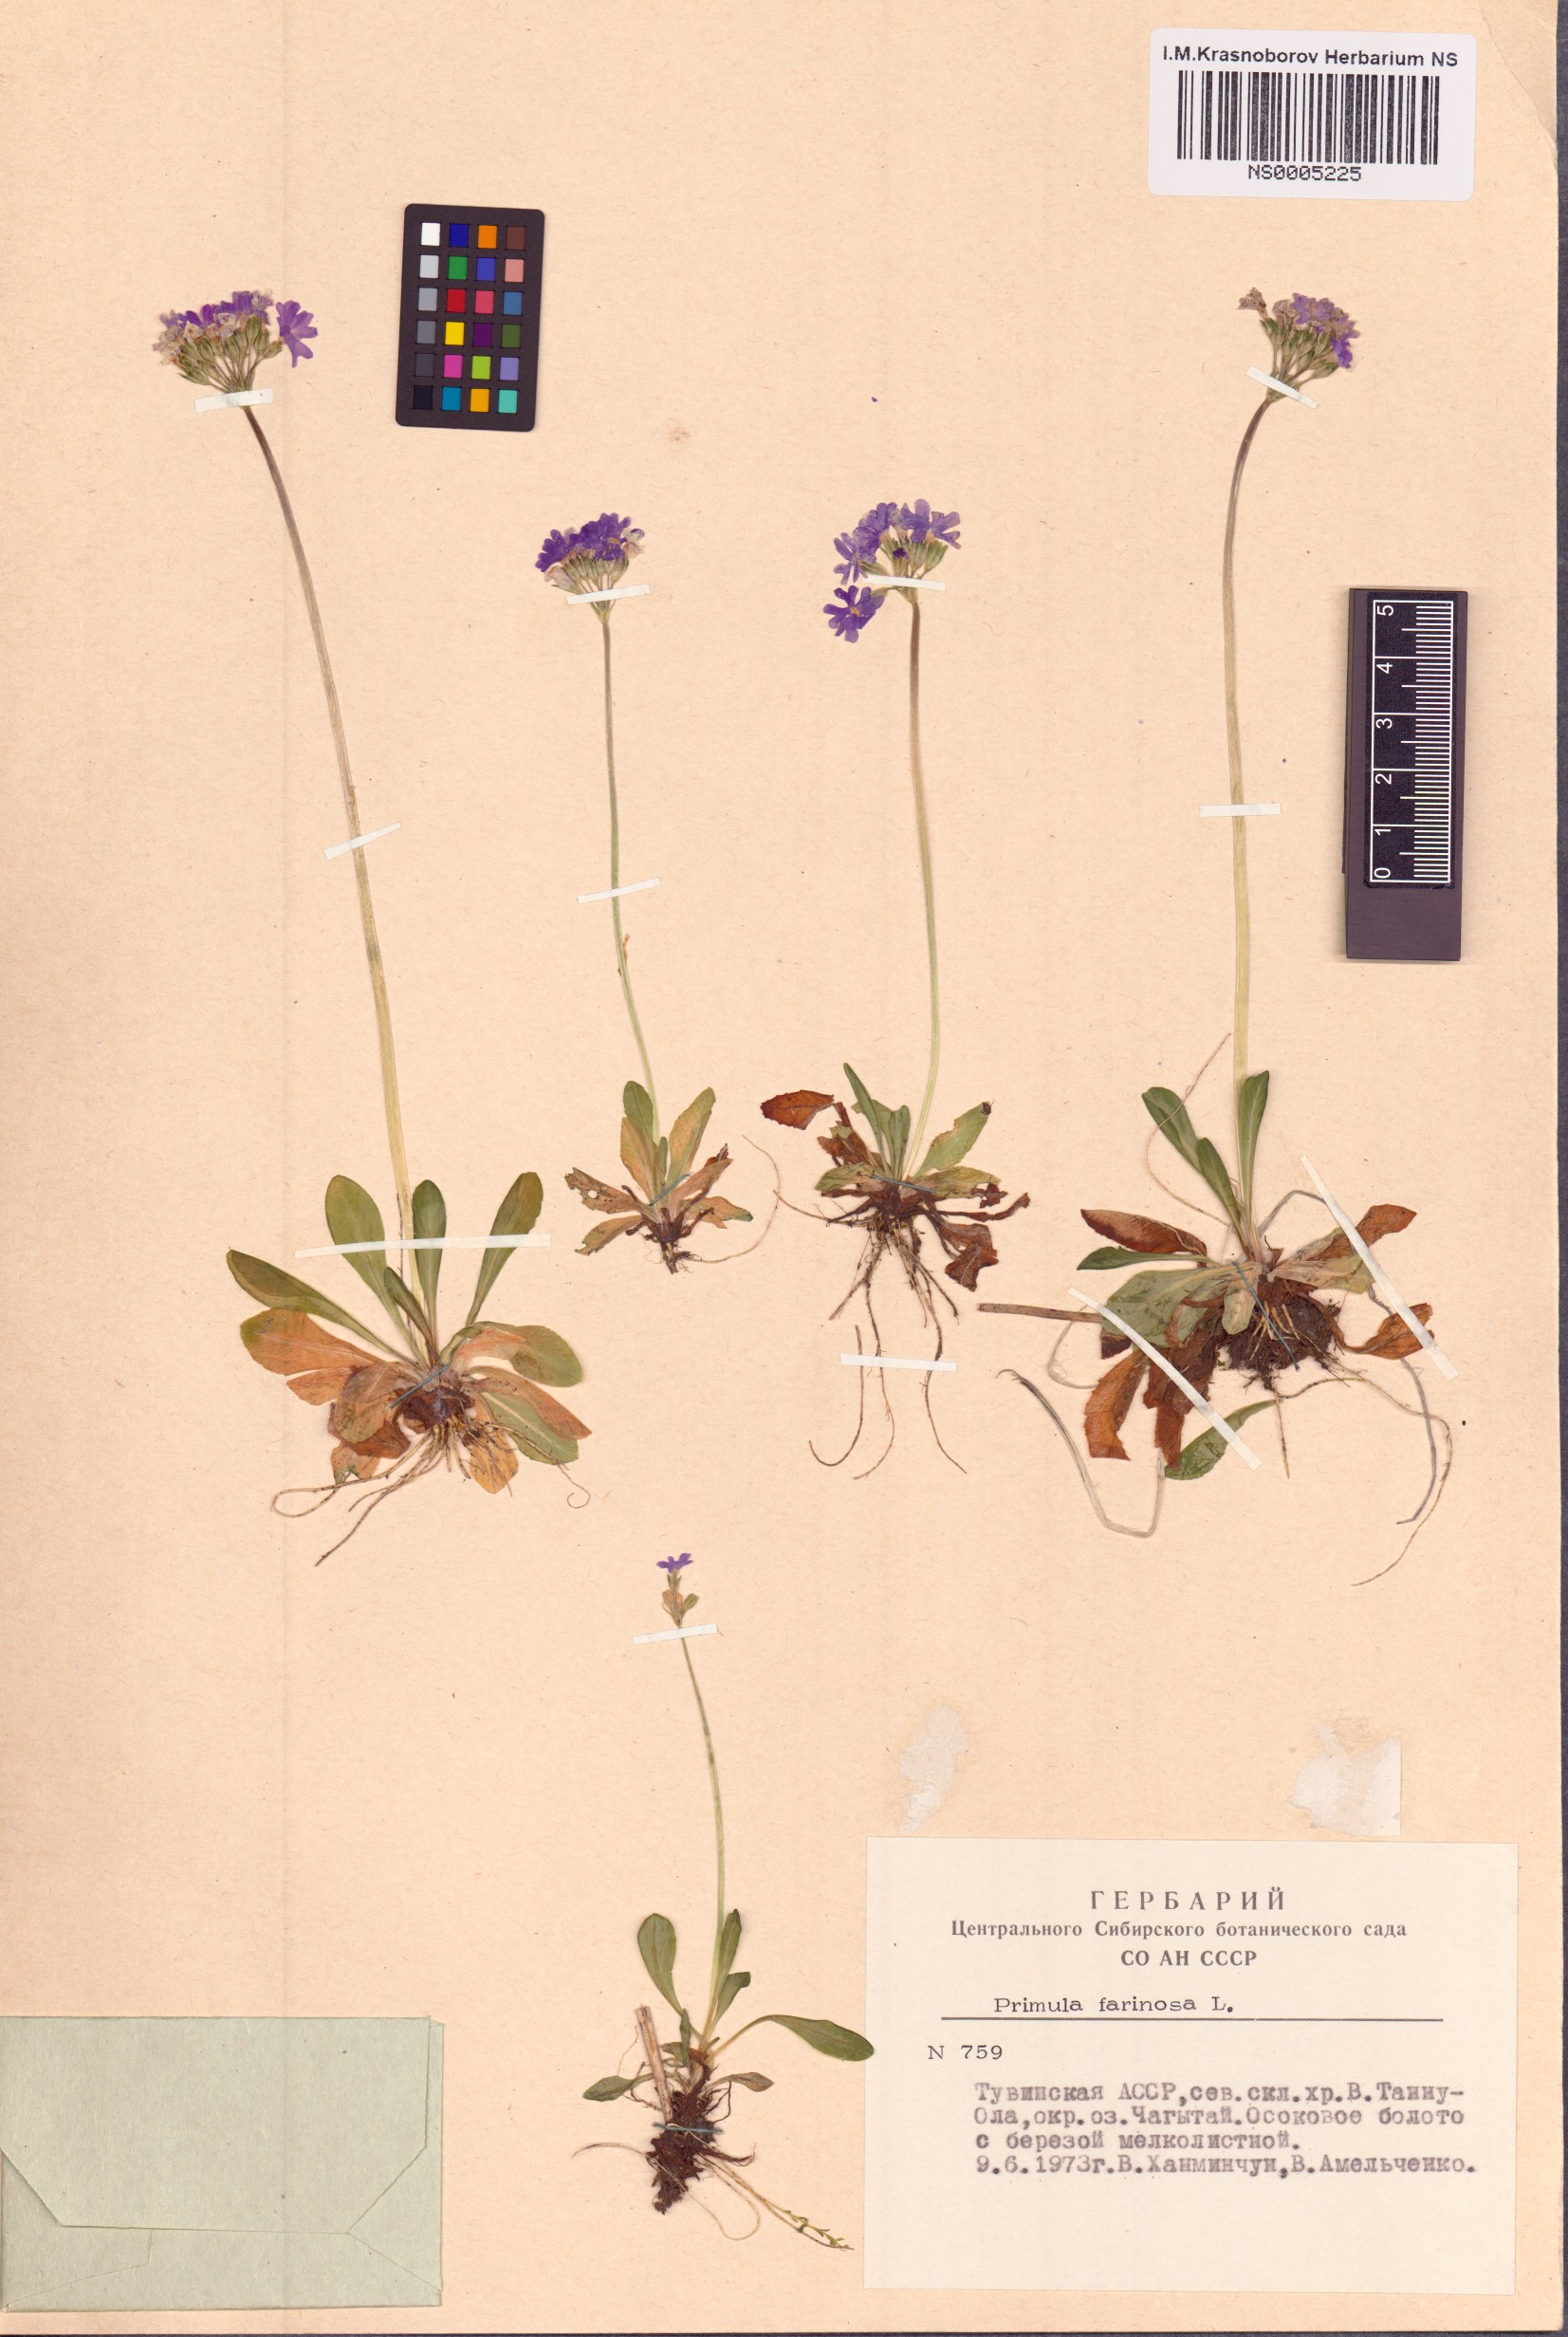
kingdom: Plantae
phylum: Tracheophyta
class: Magnoliopsida
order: Ericales
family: Primulaceae
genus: Primula
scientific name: Primula farinosa
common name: Bird's-eye primrose
